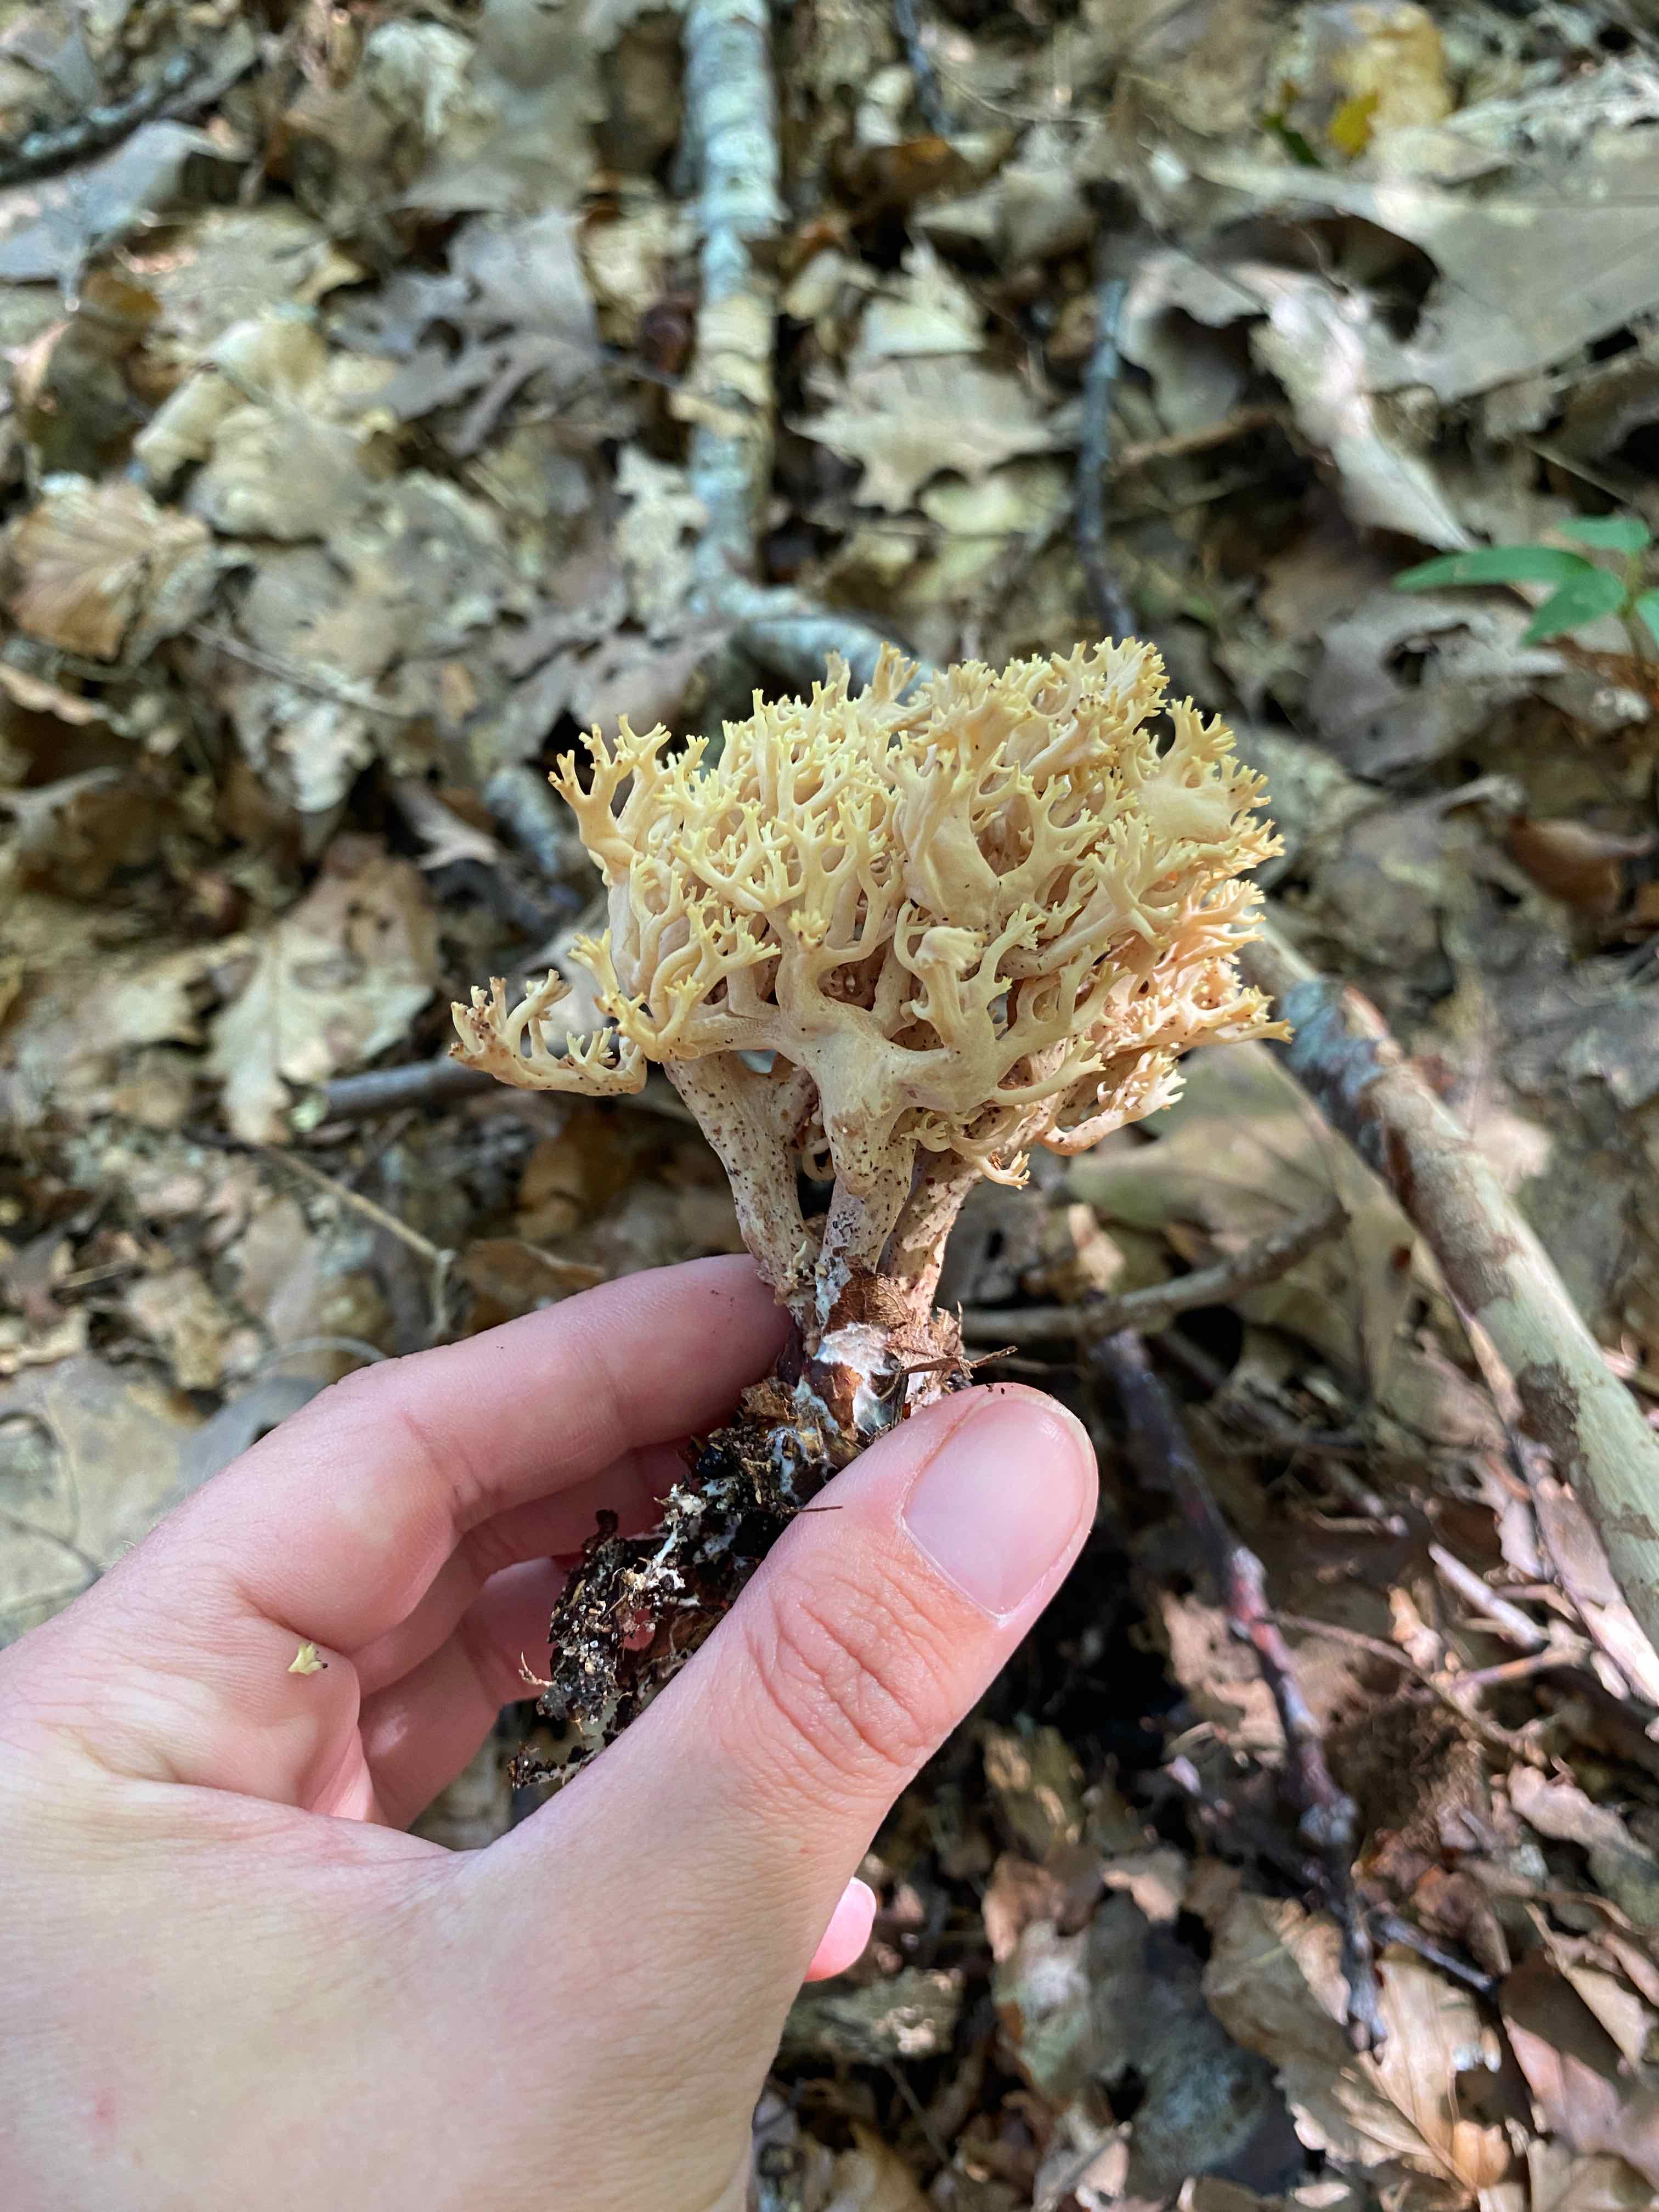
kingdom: Fungi
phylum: Basidiomycota
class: Agaricomycetes
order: Gomphales
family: Gomphaceae
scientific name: Gomphaceae
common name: køllekantarelfamilien
